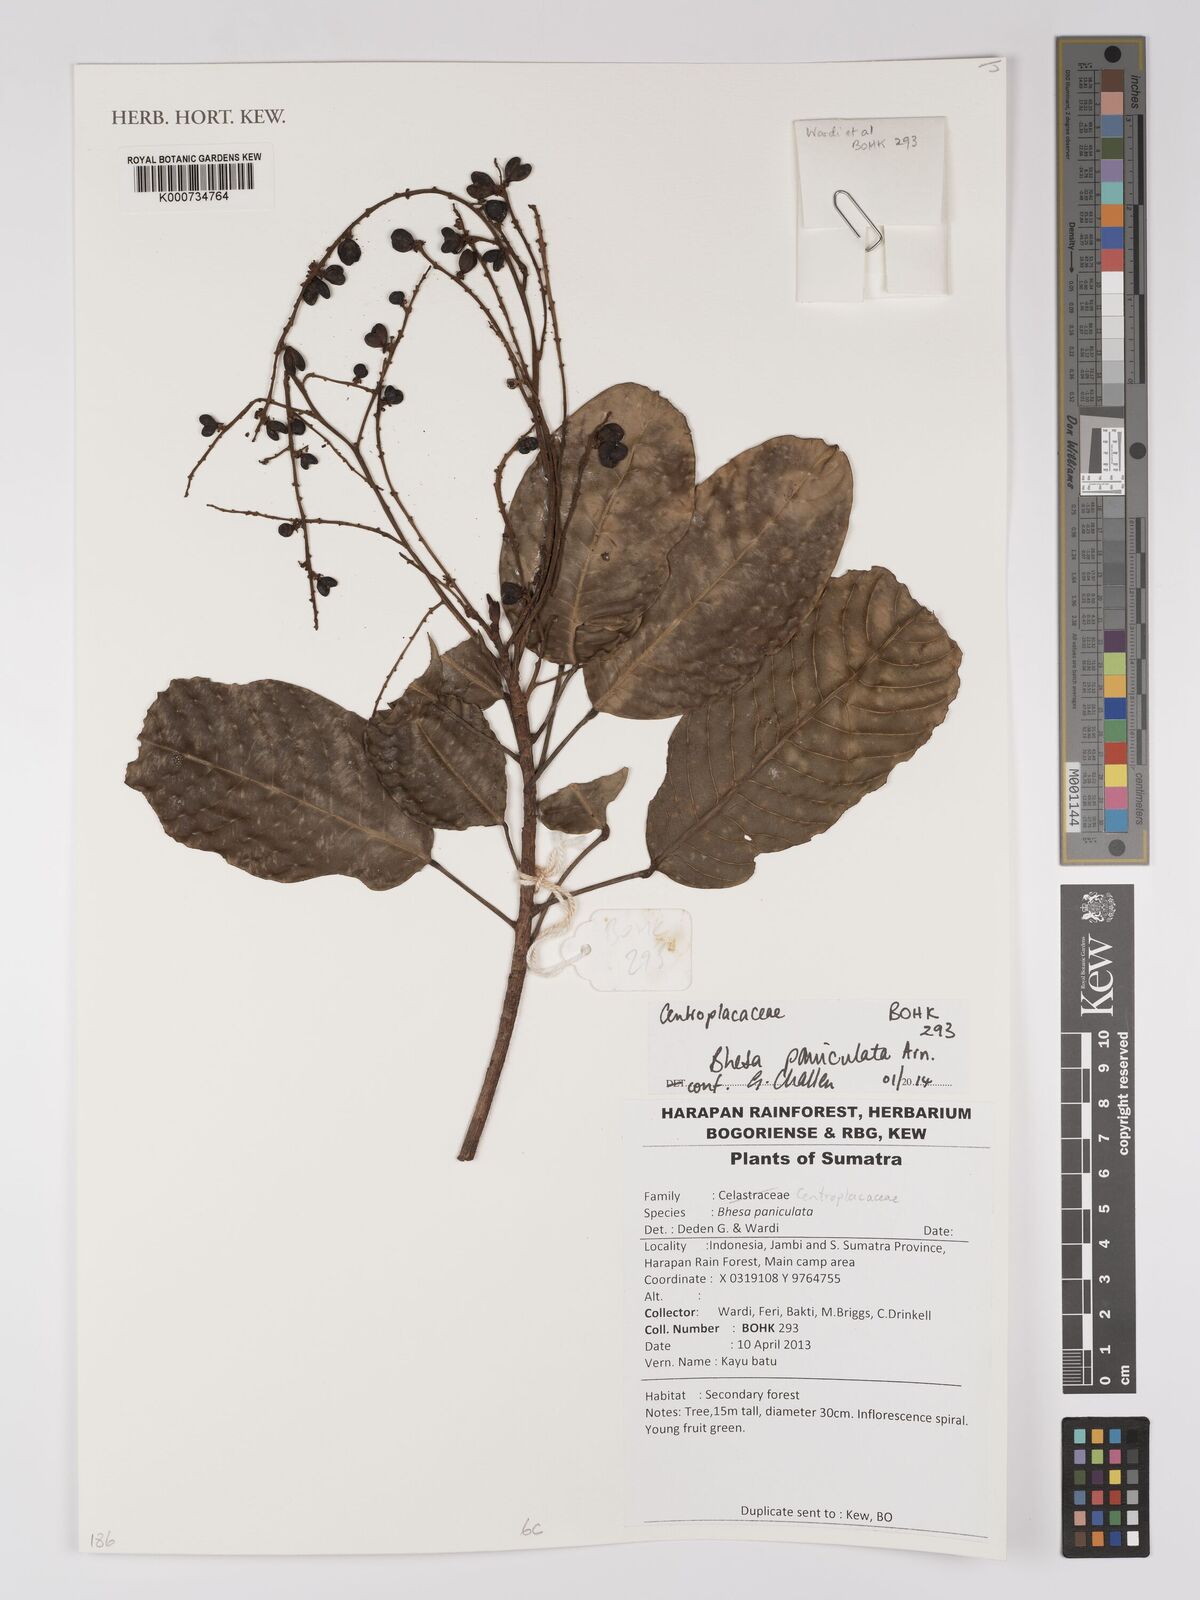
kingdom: Plantae
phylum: Tracheophyta
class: Magnoliopsida
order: Malpighiales
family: Centroplacaceae
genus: Bhesa
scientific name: Bhesa paniculata
